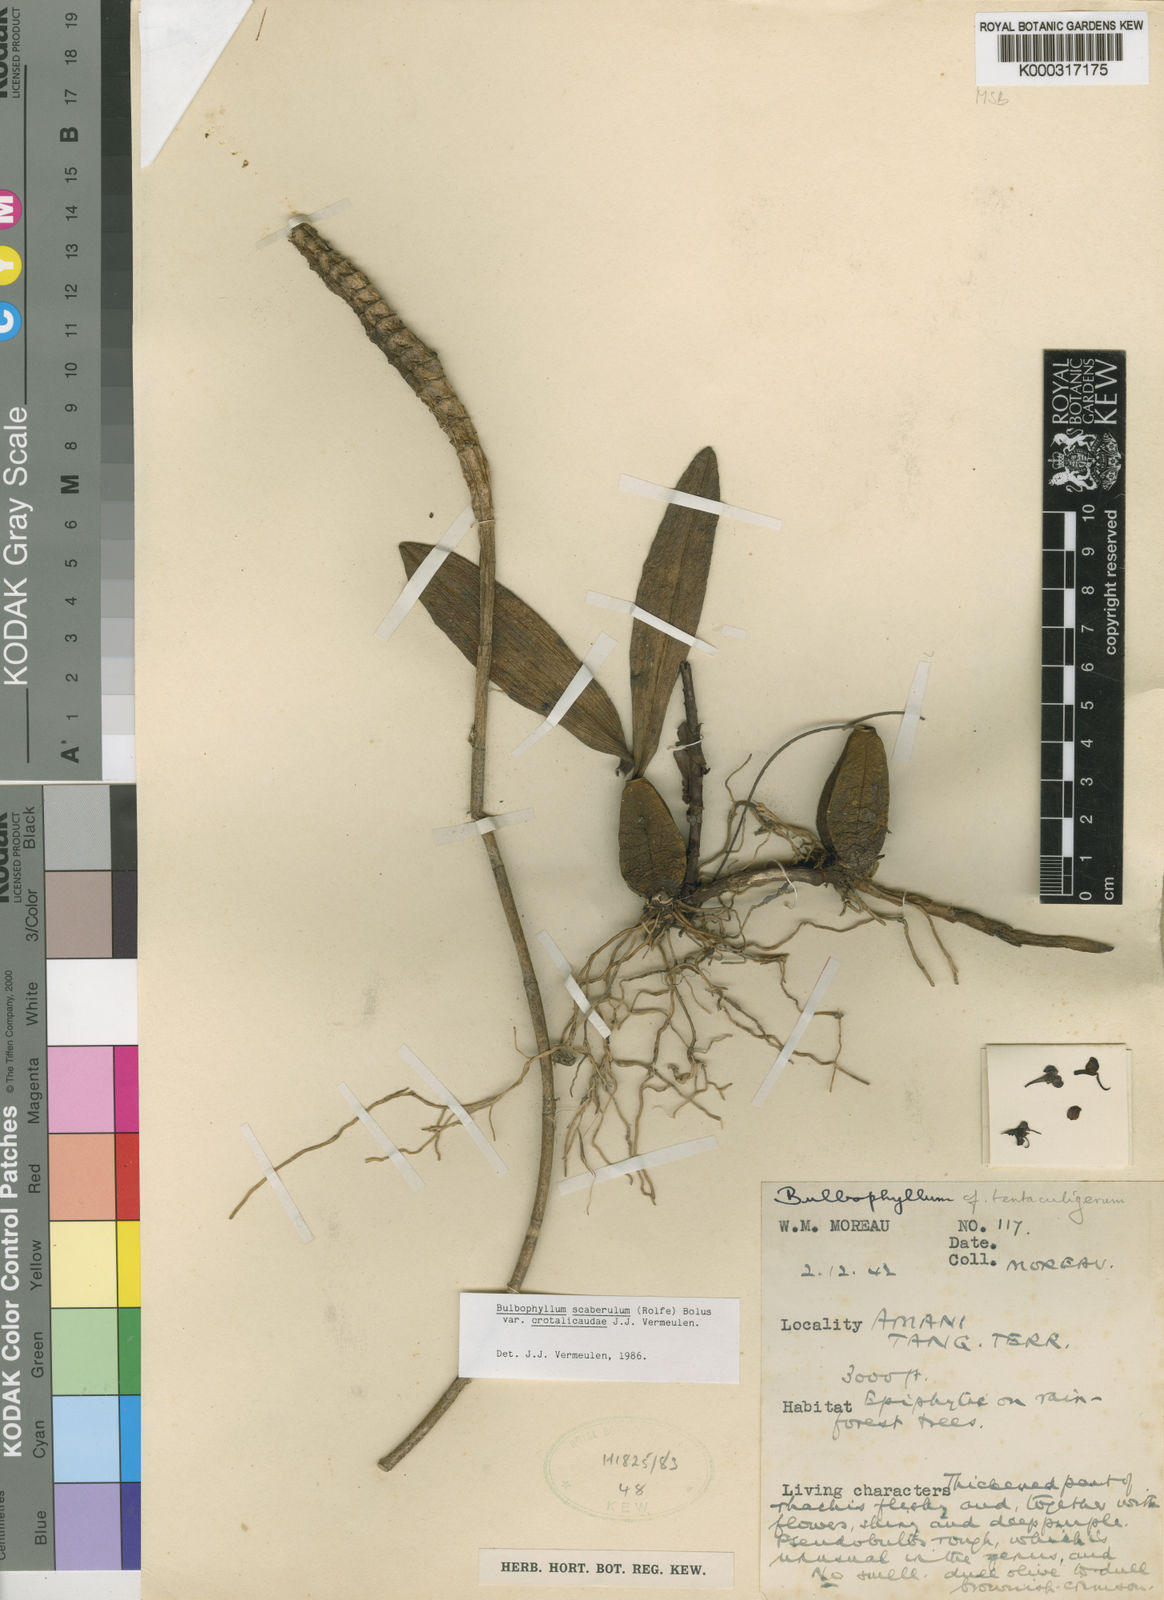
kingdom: Plantae
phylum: Tracheophyta
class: Liliopsida
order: Asparagales
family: Orchidaceae
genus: Bulbophyllum
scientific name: Bulbophyllum scaberulum
